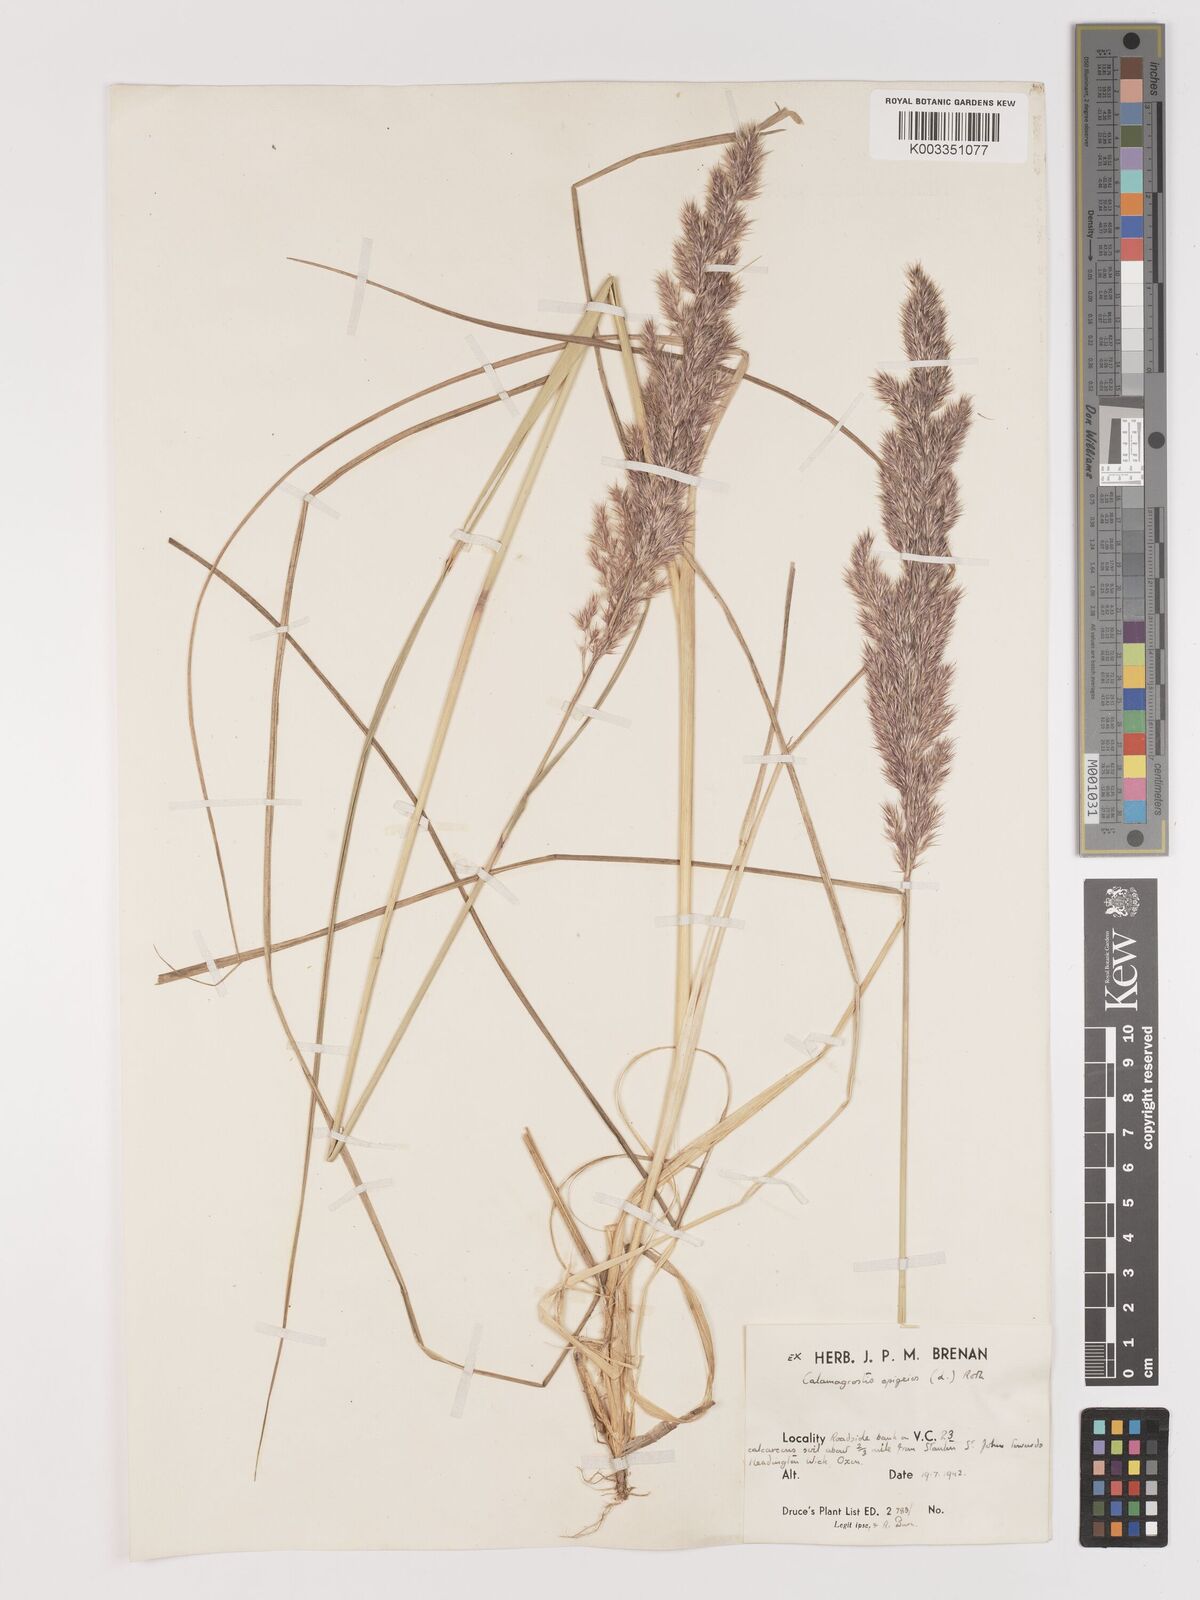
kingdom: Plantae
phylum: Tracheophyta
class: Liliopsida
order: Poales
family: Poaceae
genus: Calamagrostis
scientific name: Calamagrostis epigejos
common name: Wood small-reed
